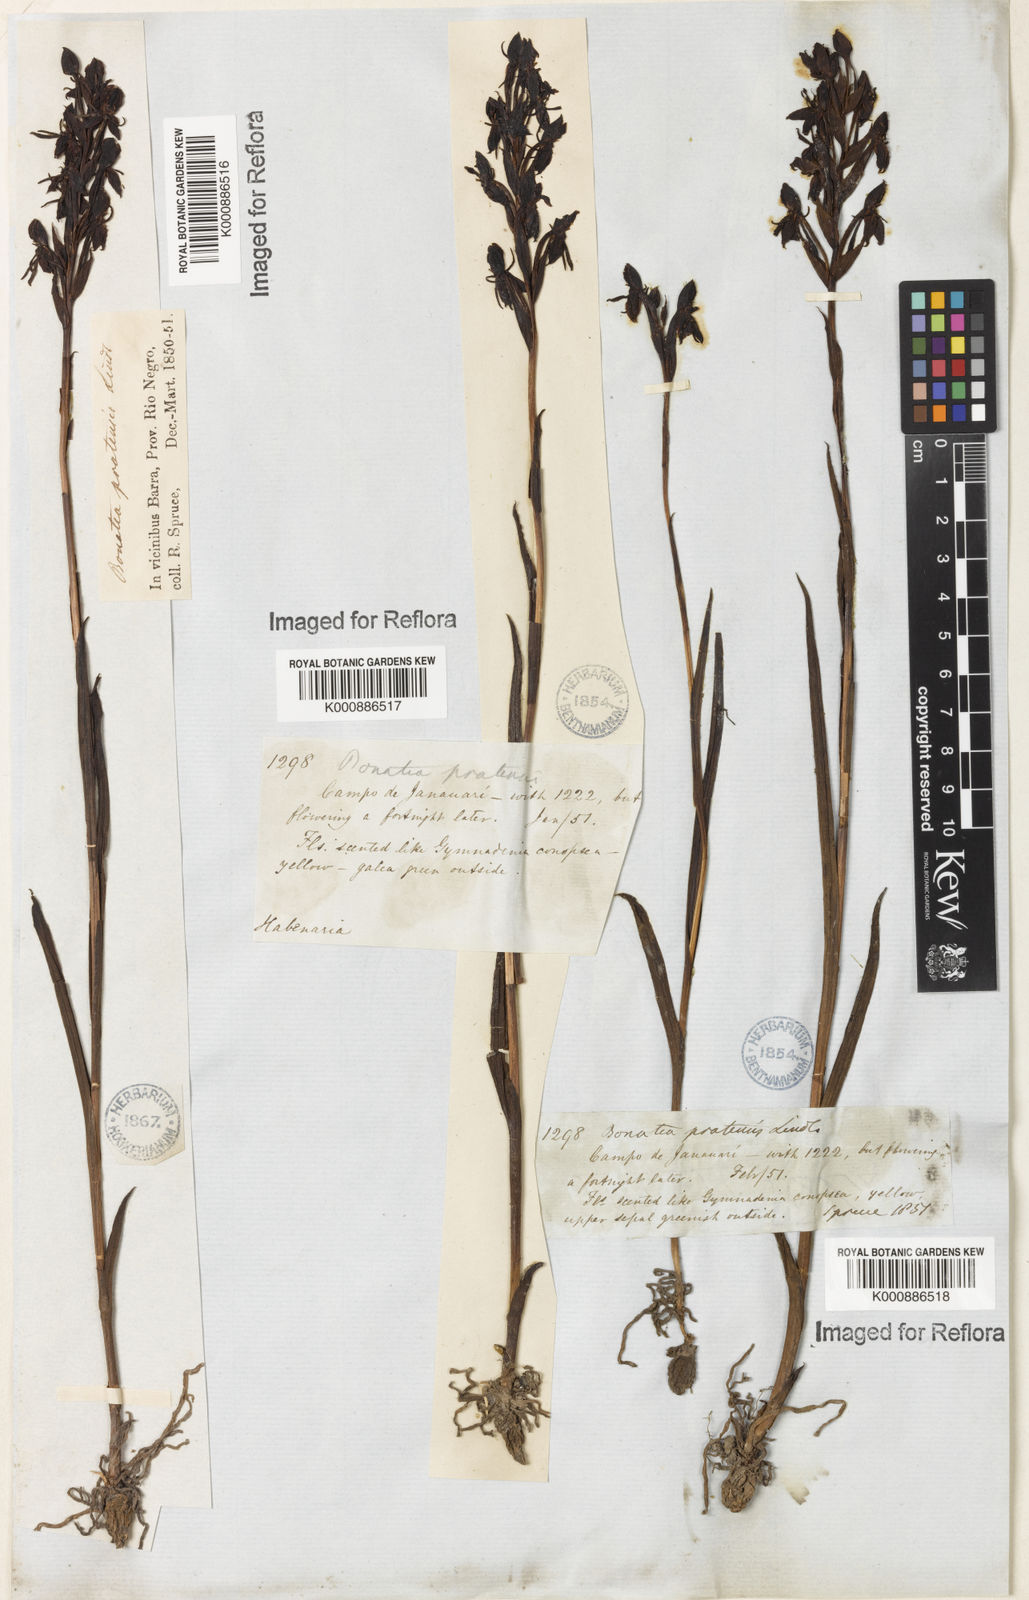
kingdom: Plantae
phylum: Tracheophyta
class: Liliopsida
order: Asparagales
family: Orchidaceae
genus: Habenaria
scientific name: Habenaria pratensis
